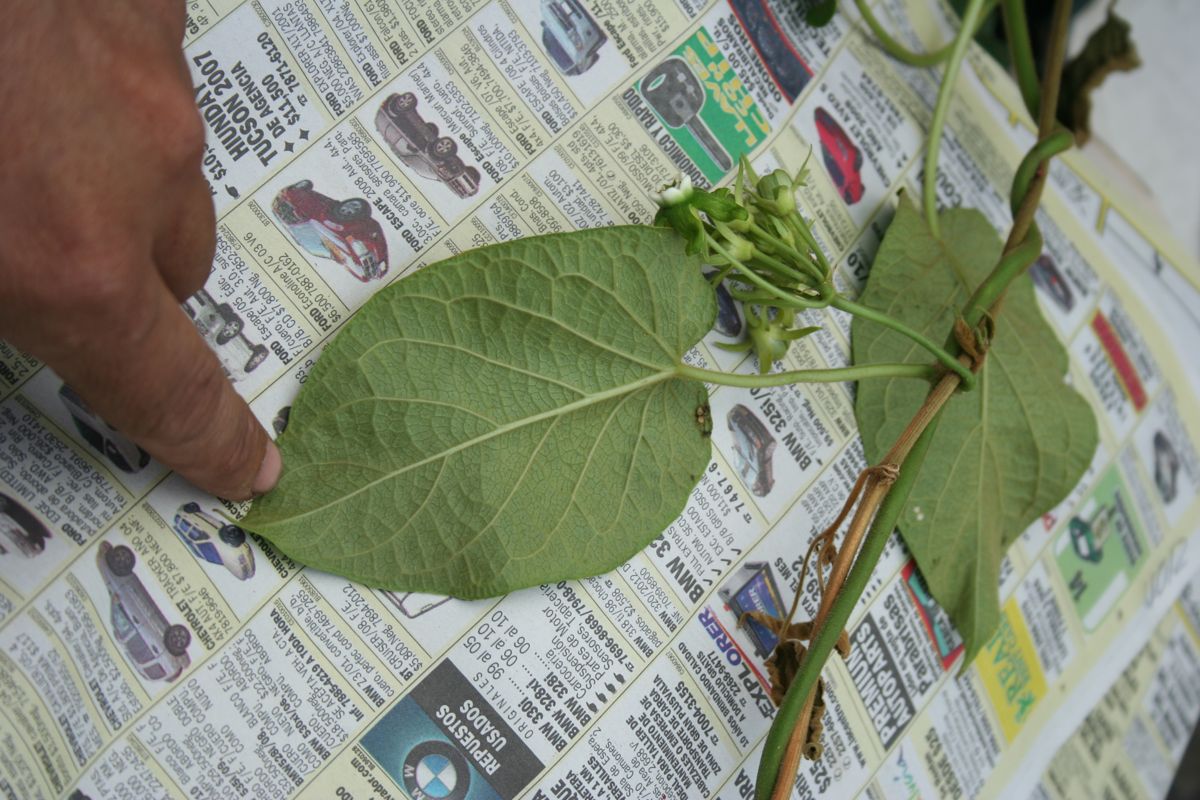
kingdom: Plantae
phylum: Tracheophyta
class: Magnoliopsida
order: Gentianales
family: Apocynaceae
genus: Gonolobus
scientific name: Gonolobus calycosus
